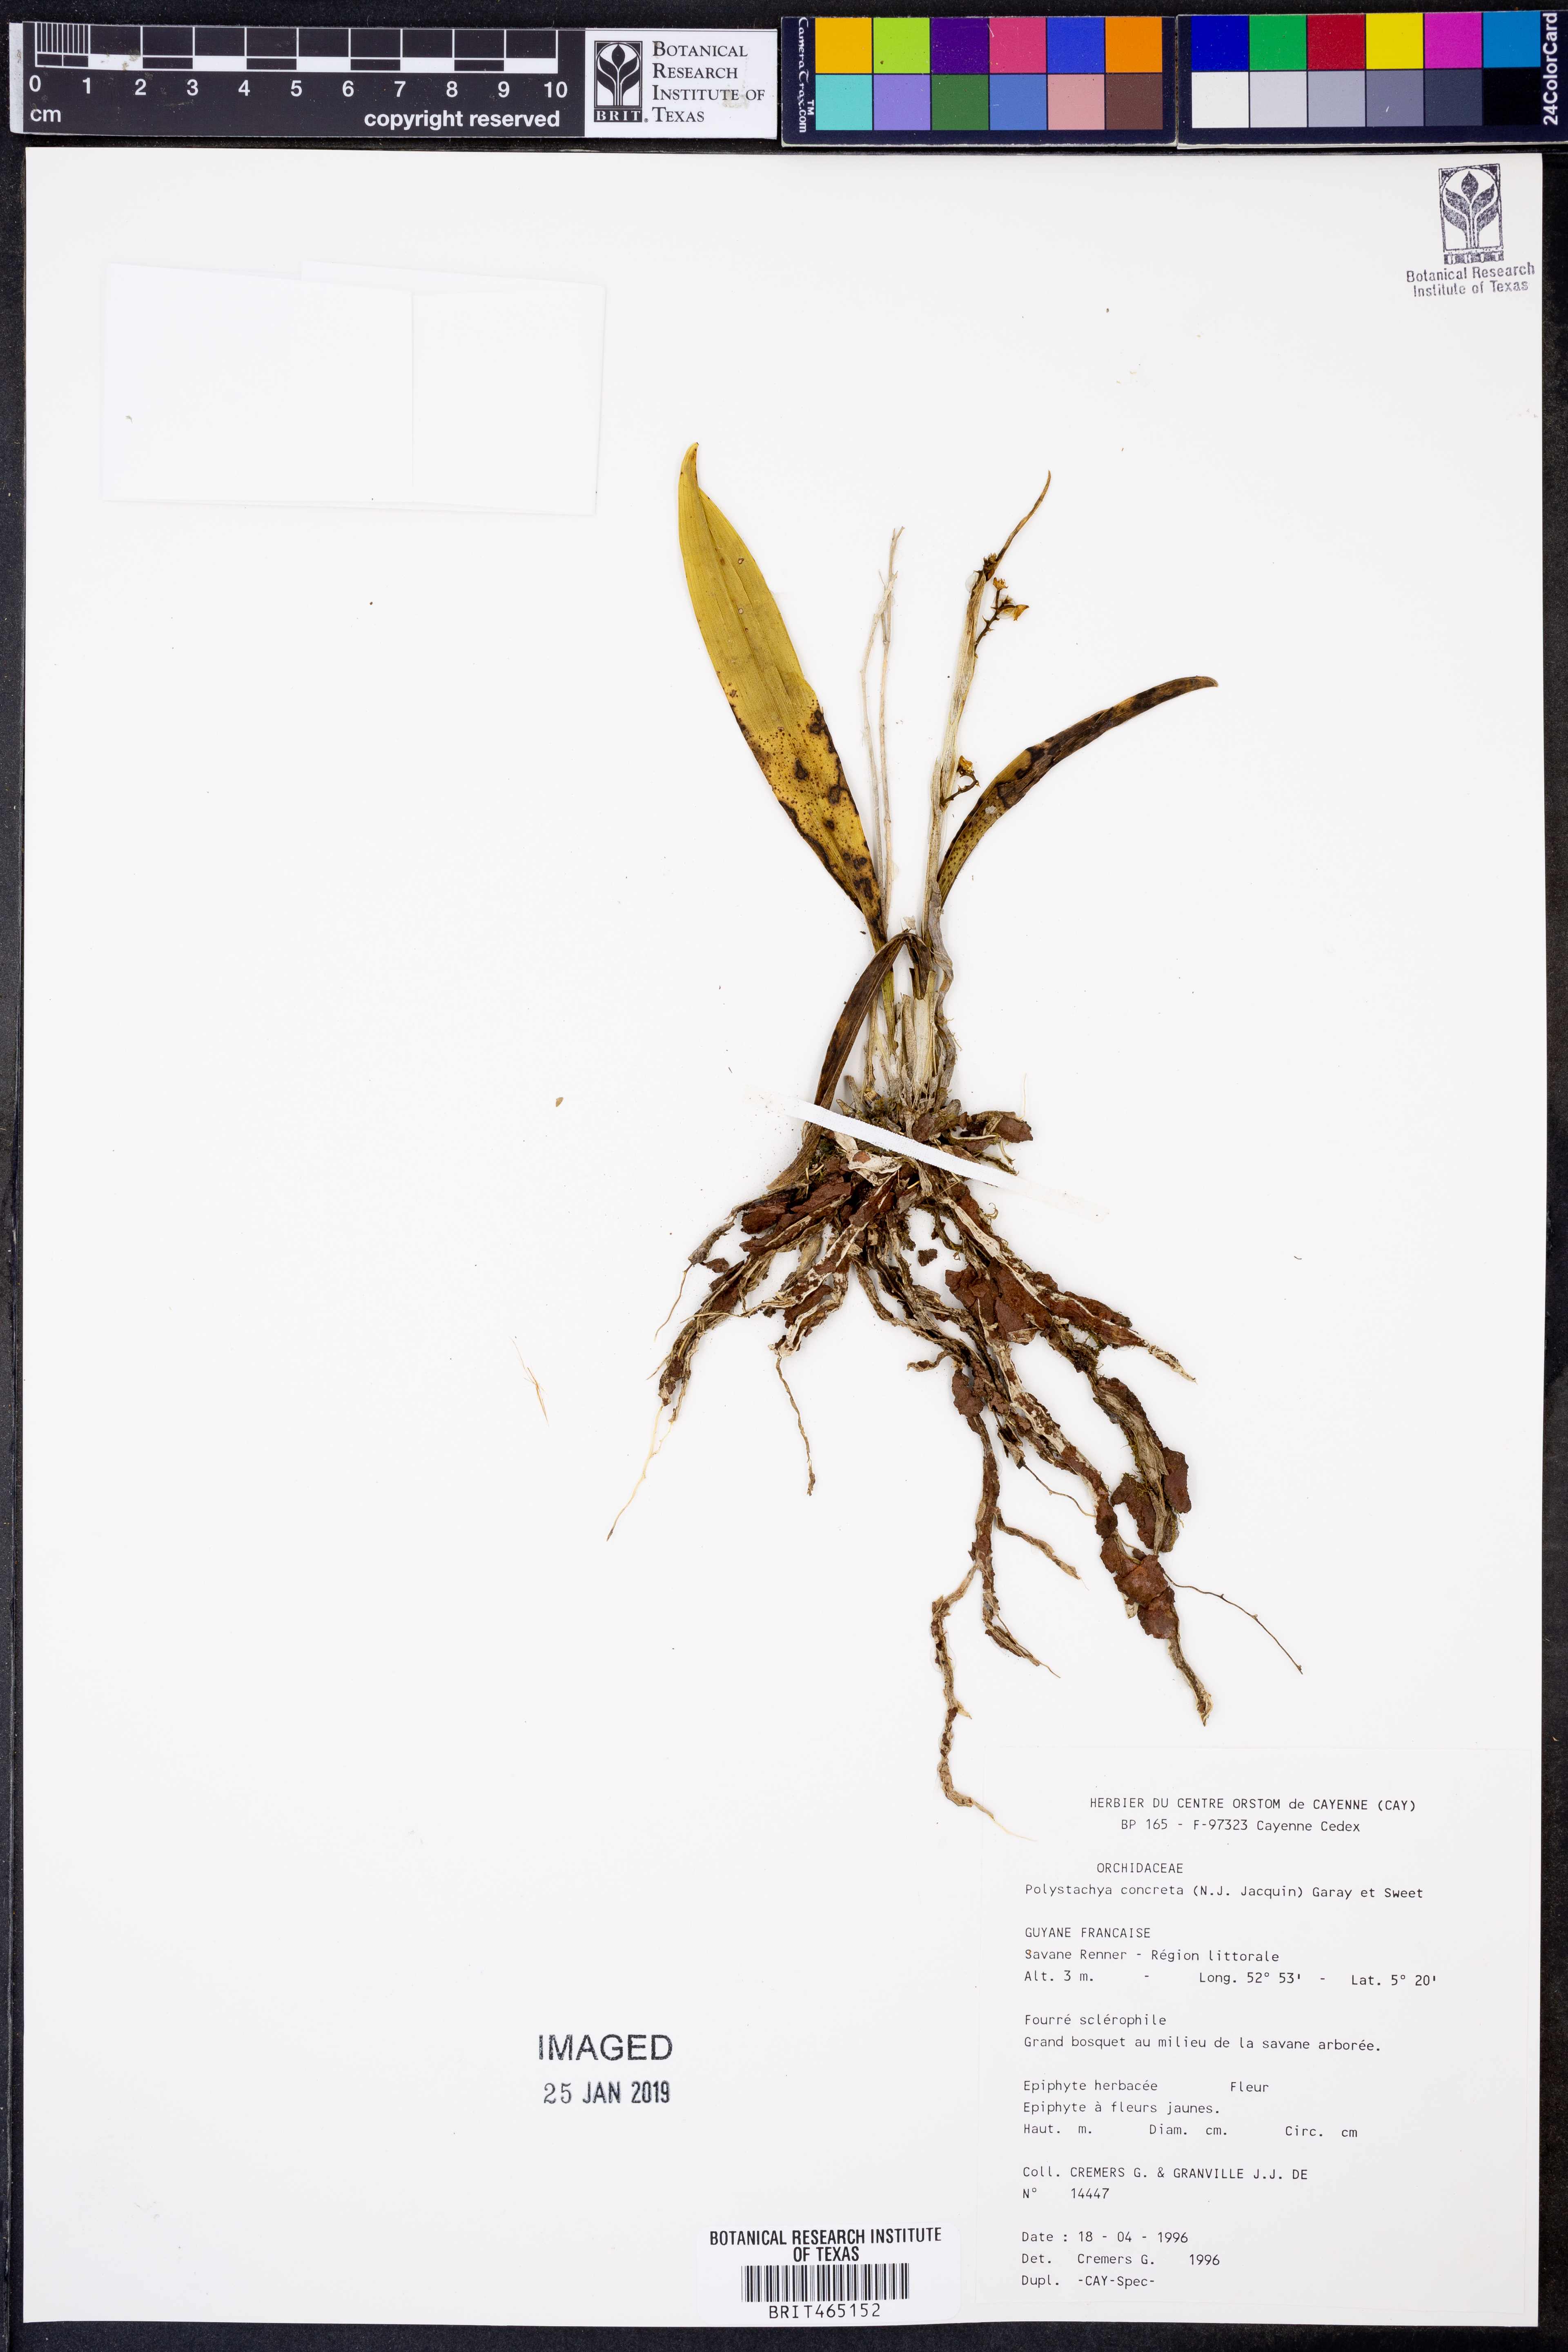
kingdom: Plantae
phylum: Tracheophyta
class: Liliopsida
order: Asparagales
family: Orchidaceae
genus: Polystachya
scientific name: Polystachya concreta
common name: Greater yellowspike orchid
